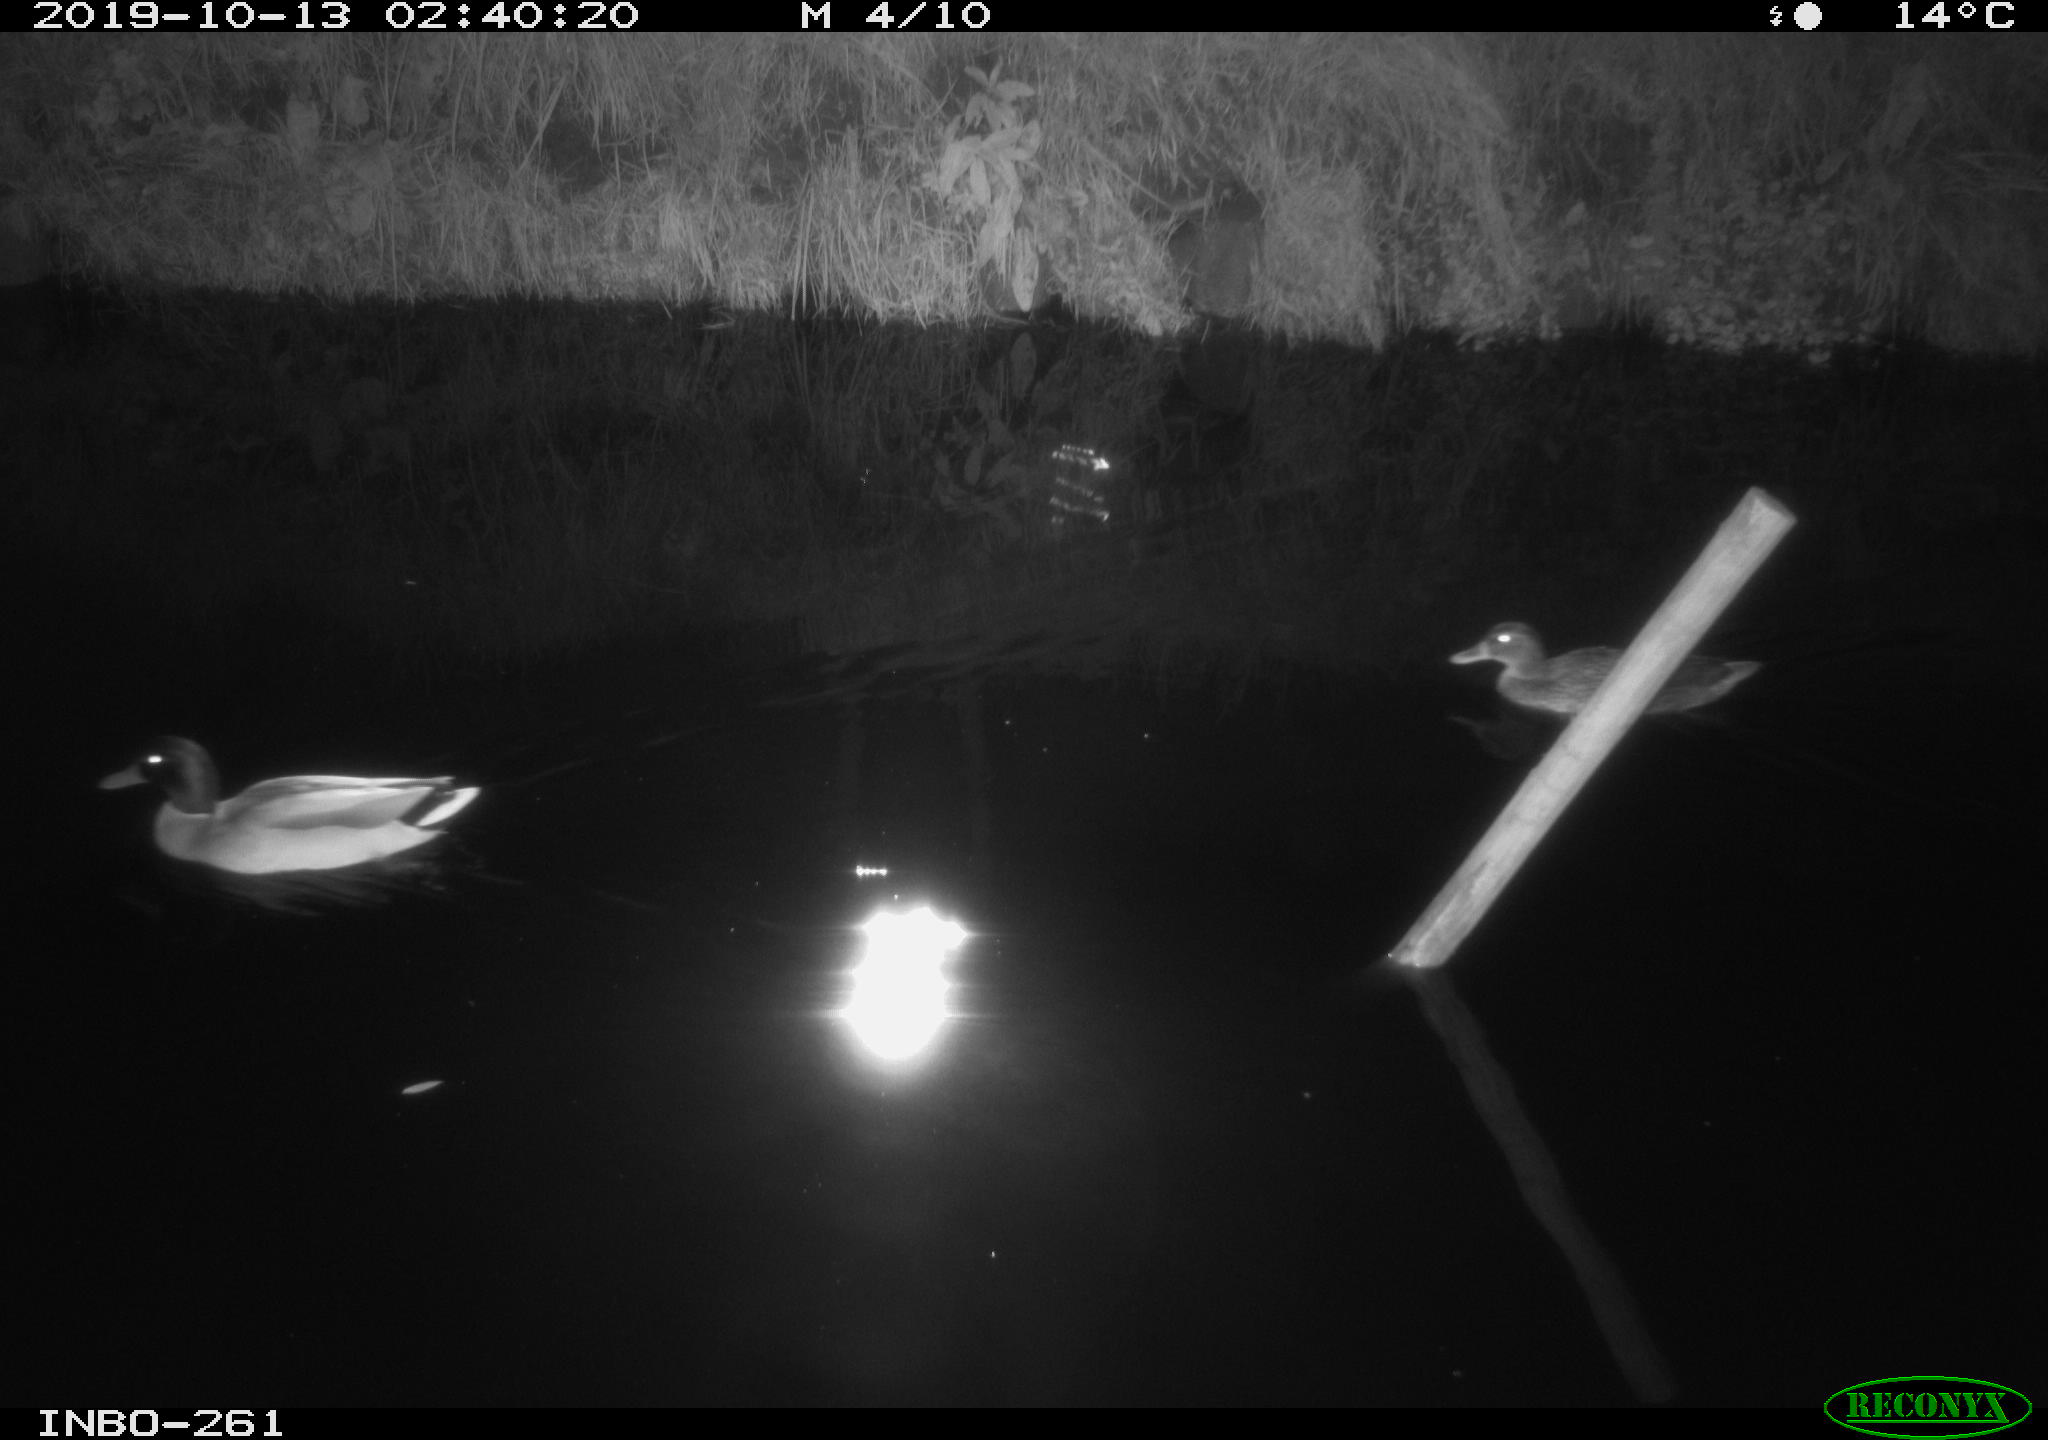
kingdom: Animalia
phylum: Chordata
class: Aves
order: Anseriformes
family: Anatidae
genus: Anas
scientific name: Anas platyrhynchos
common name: Mallard
